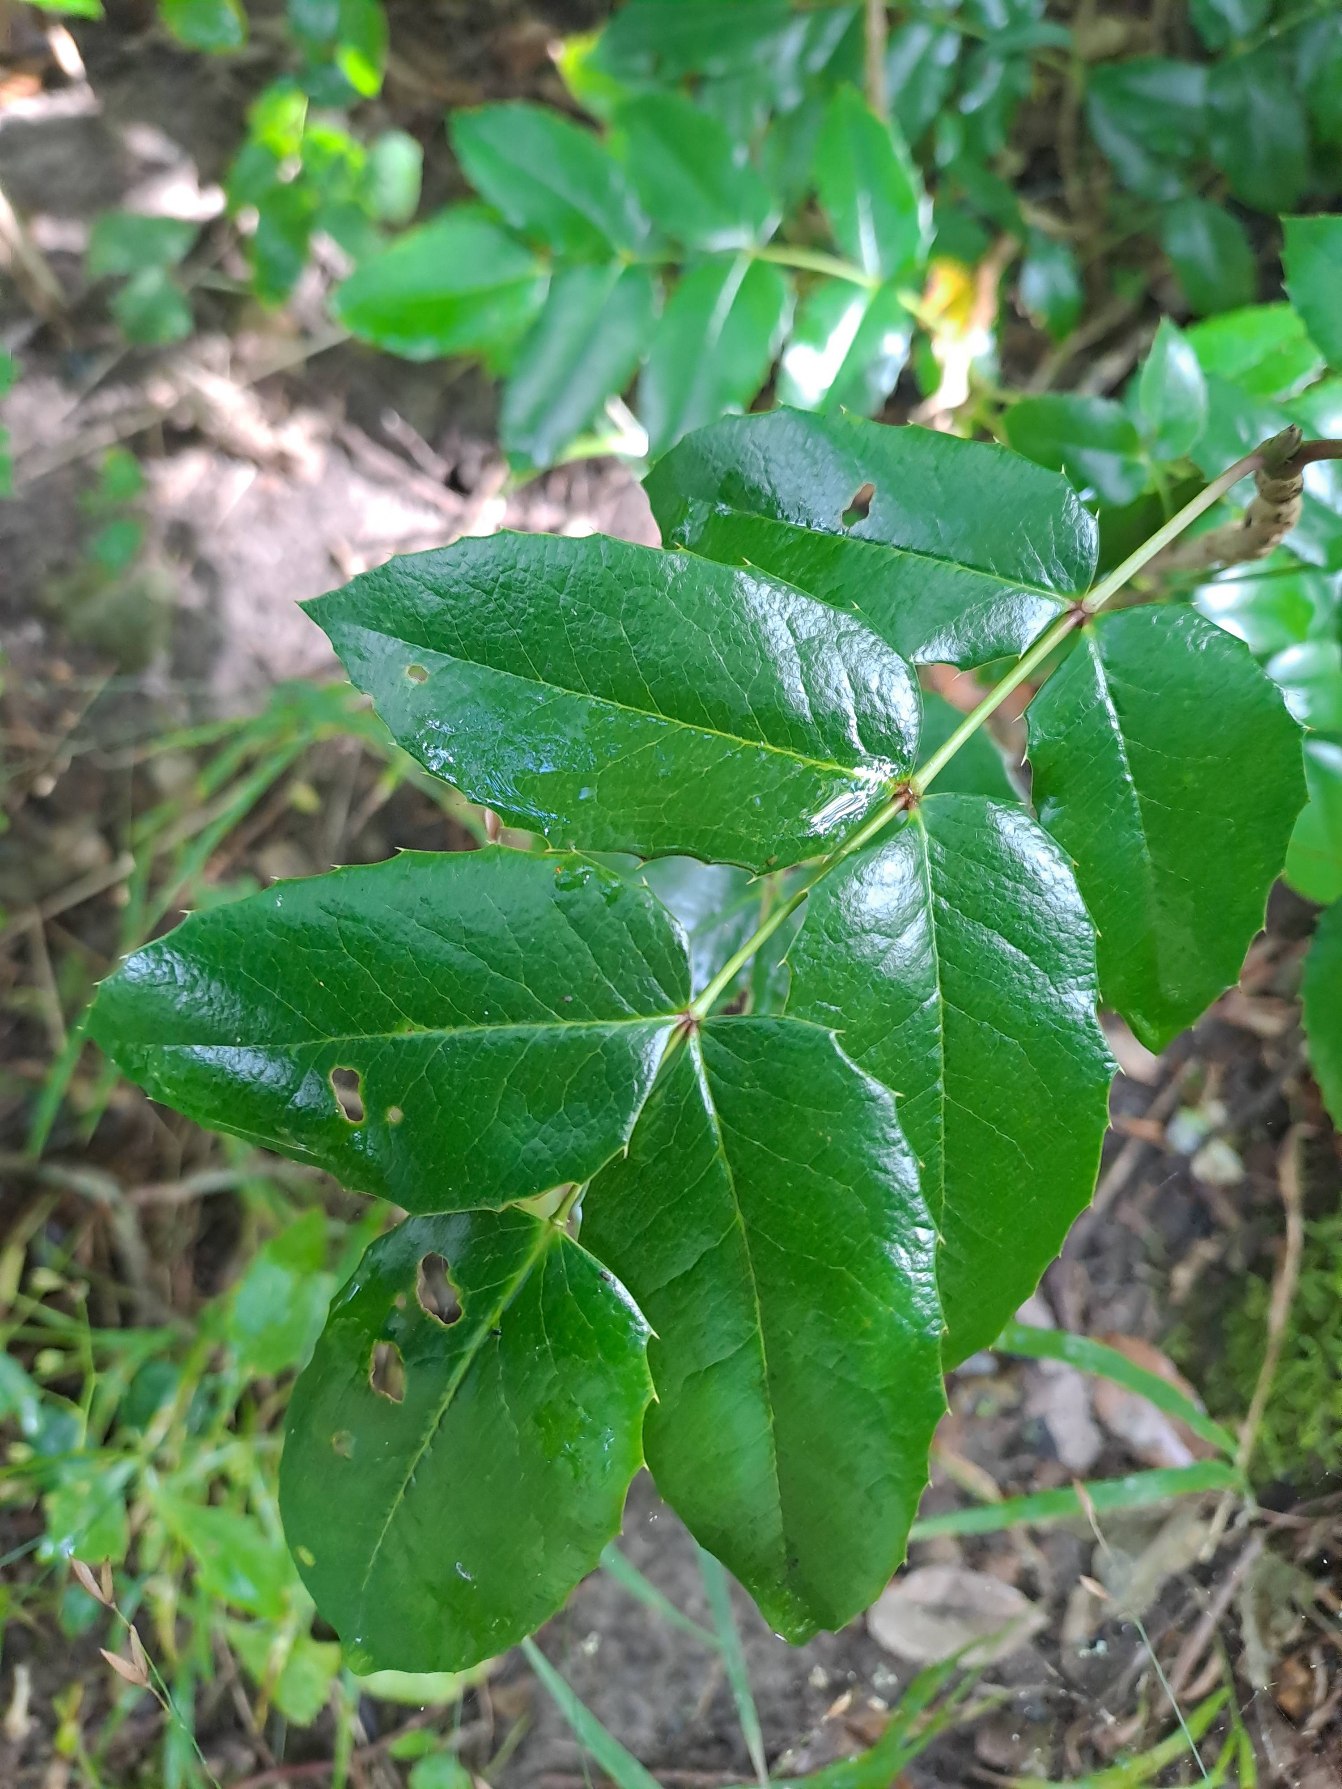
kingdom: Plantae
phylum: Tracheophyta
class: Magnoliopsida
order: Ranunculales
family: Berberidaceae
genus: Mahonia
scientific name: Mahonia aquifolium
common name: Almindelig mahonie
